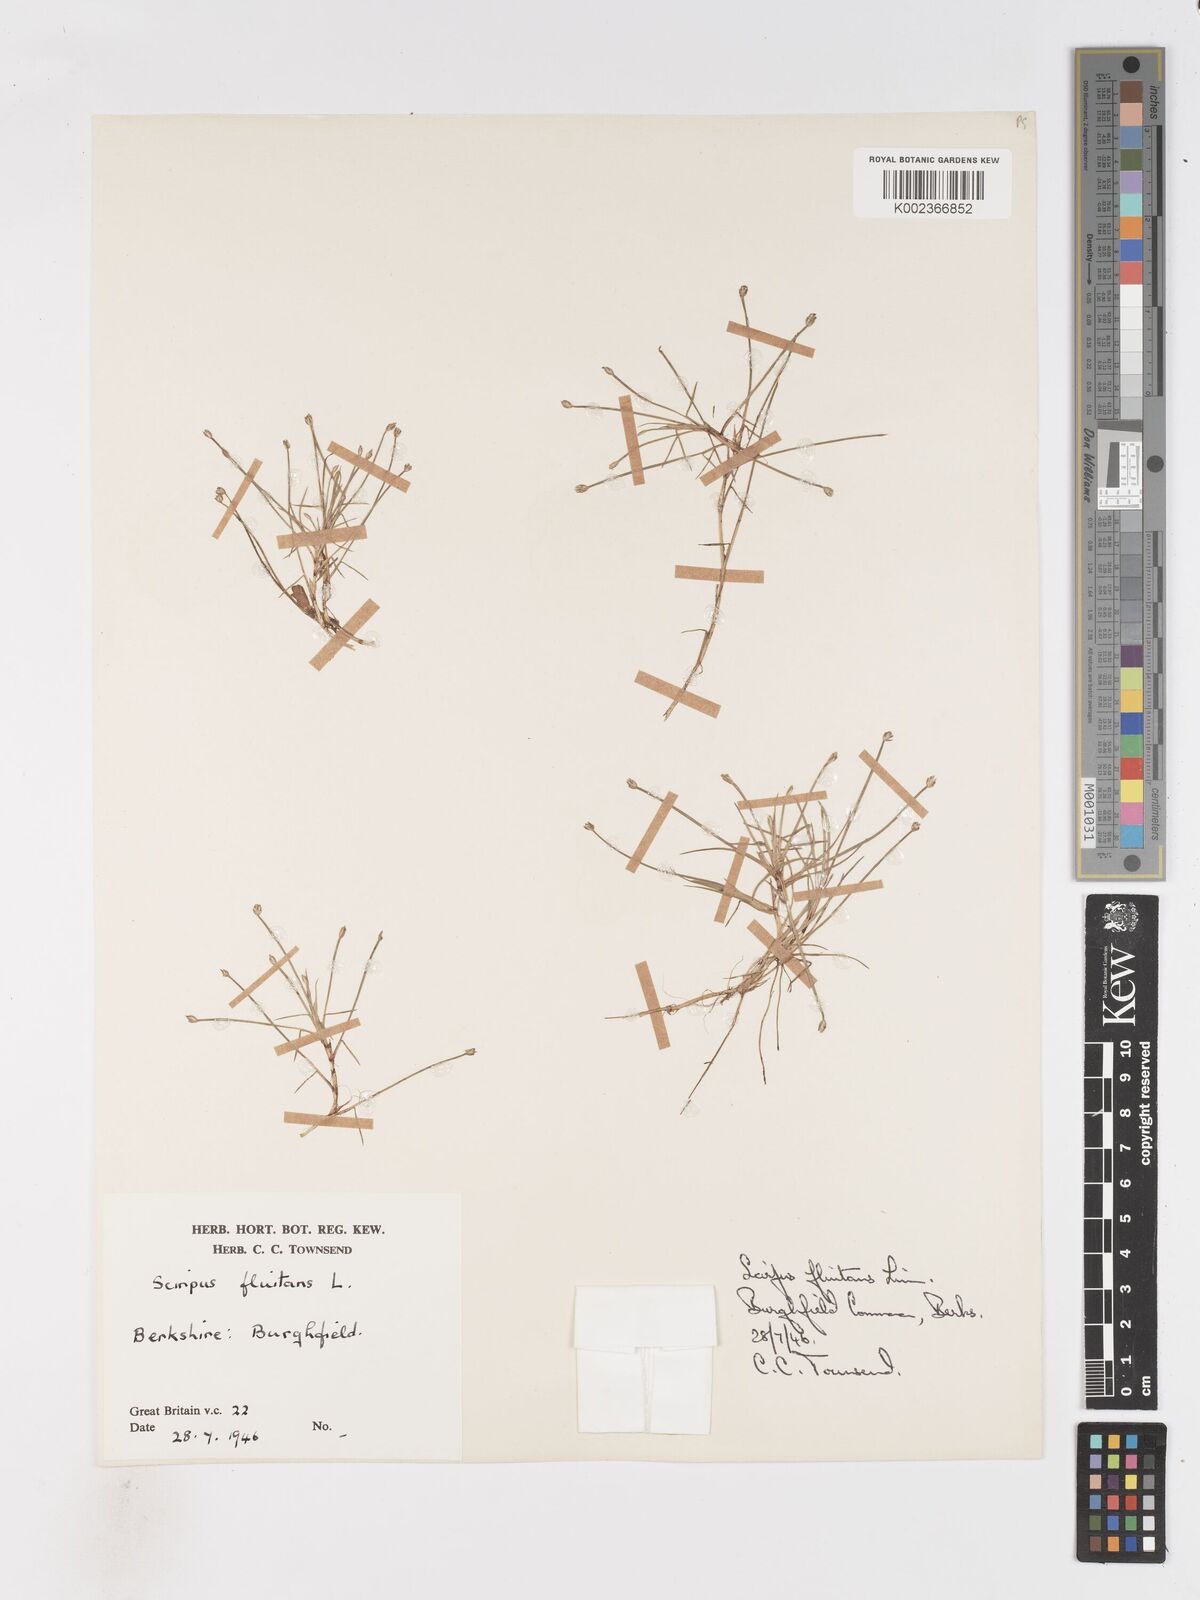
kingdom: Plantae
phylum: Tracheophyta
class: Liliopsida
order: Poales
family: Cyperaceae
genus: Isolepis
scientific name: Isolepis fluitans
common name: Floating club-rush
